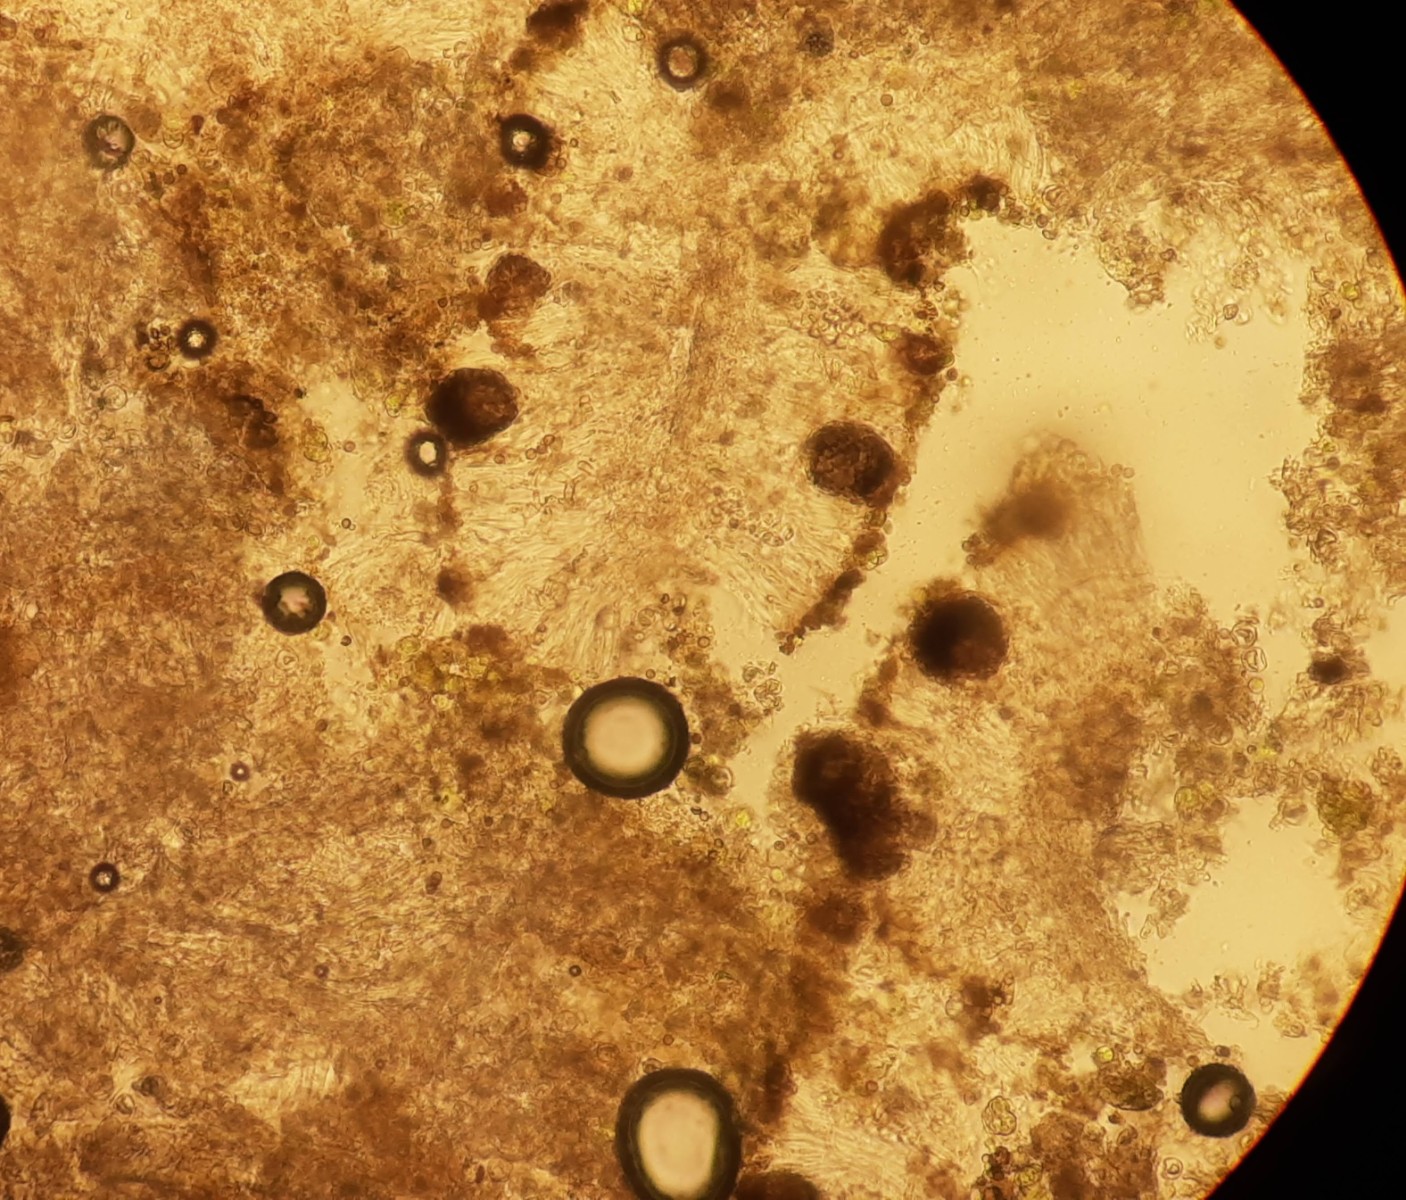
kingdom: Fungi
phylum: Ascomycota
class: Dothideomycetes
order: Mycosphaerellales
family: Teratosphaeriaceae
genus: Xanthoriicola
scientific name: Xanthoriicola physciae
